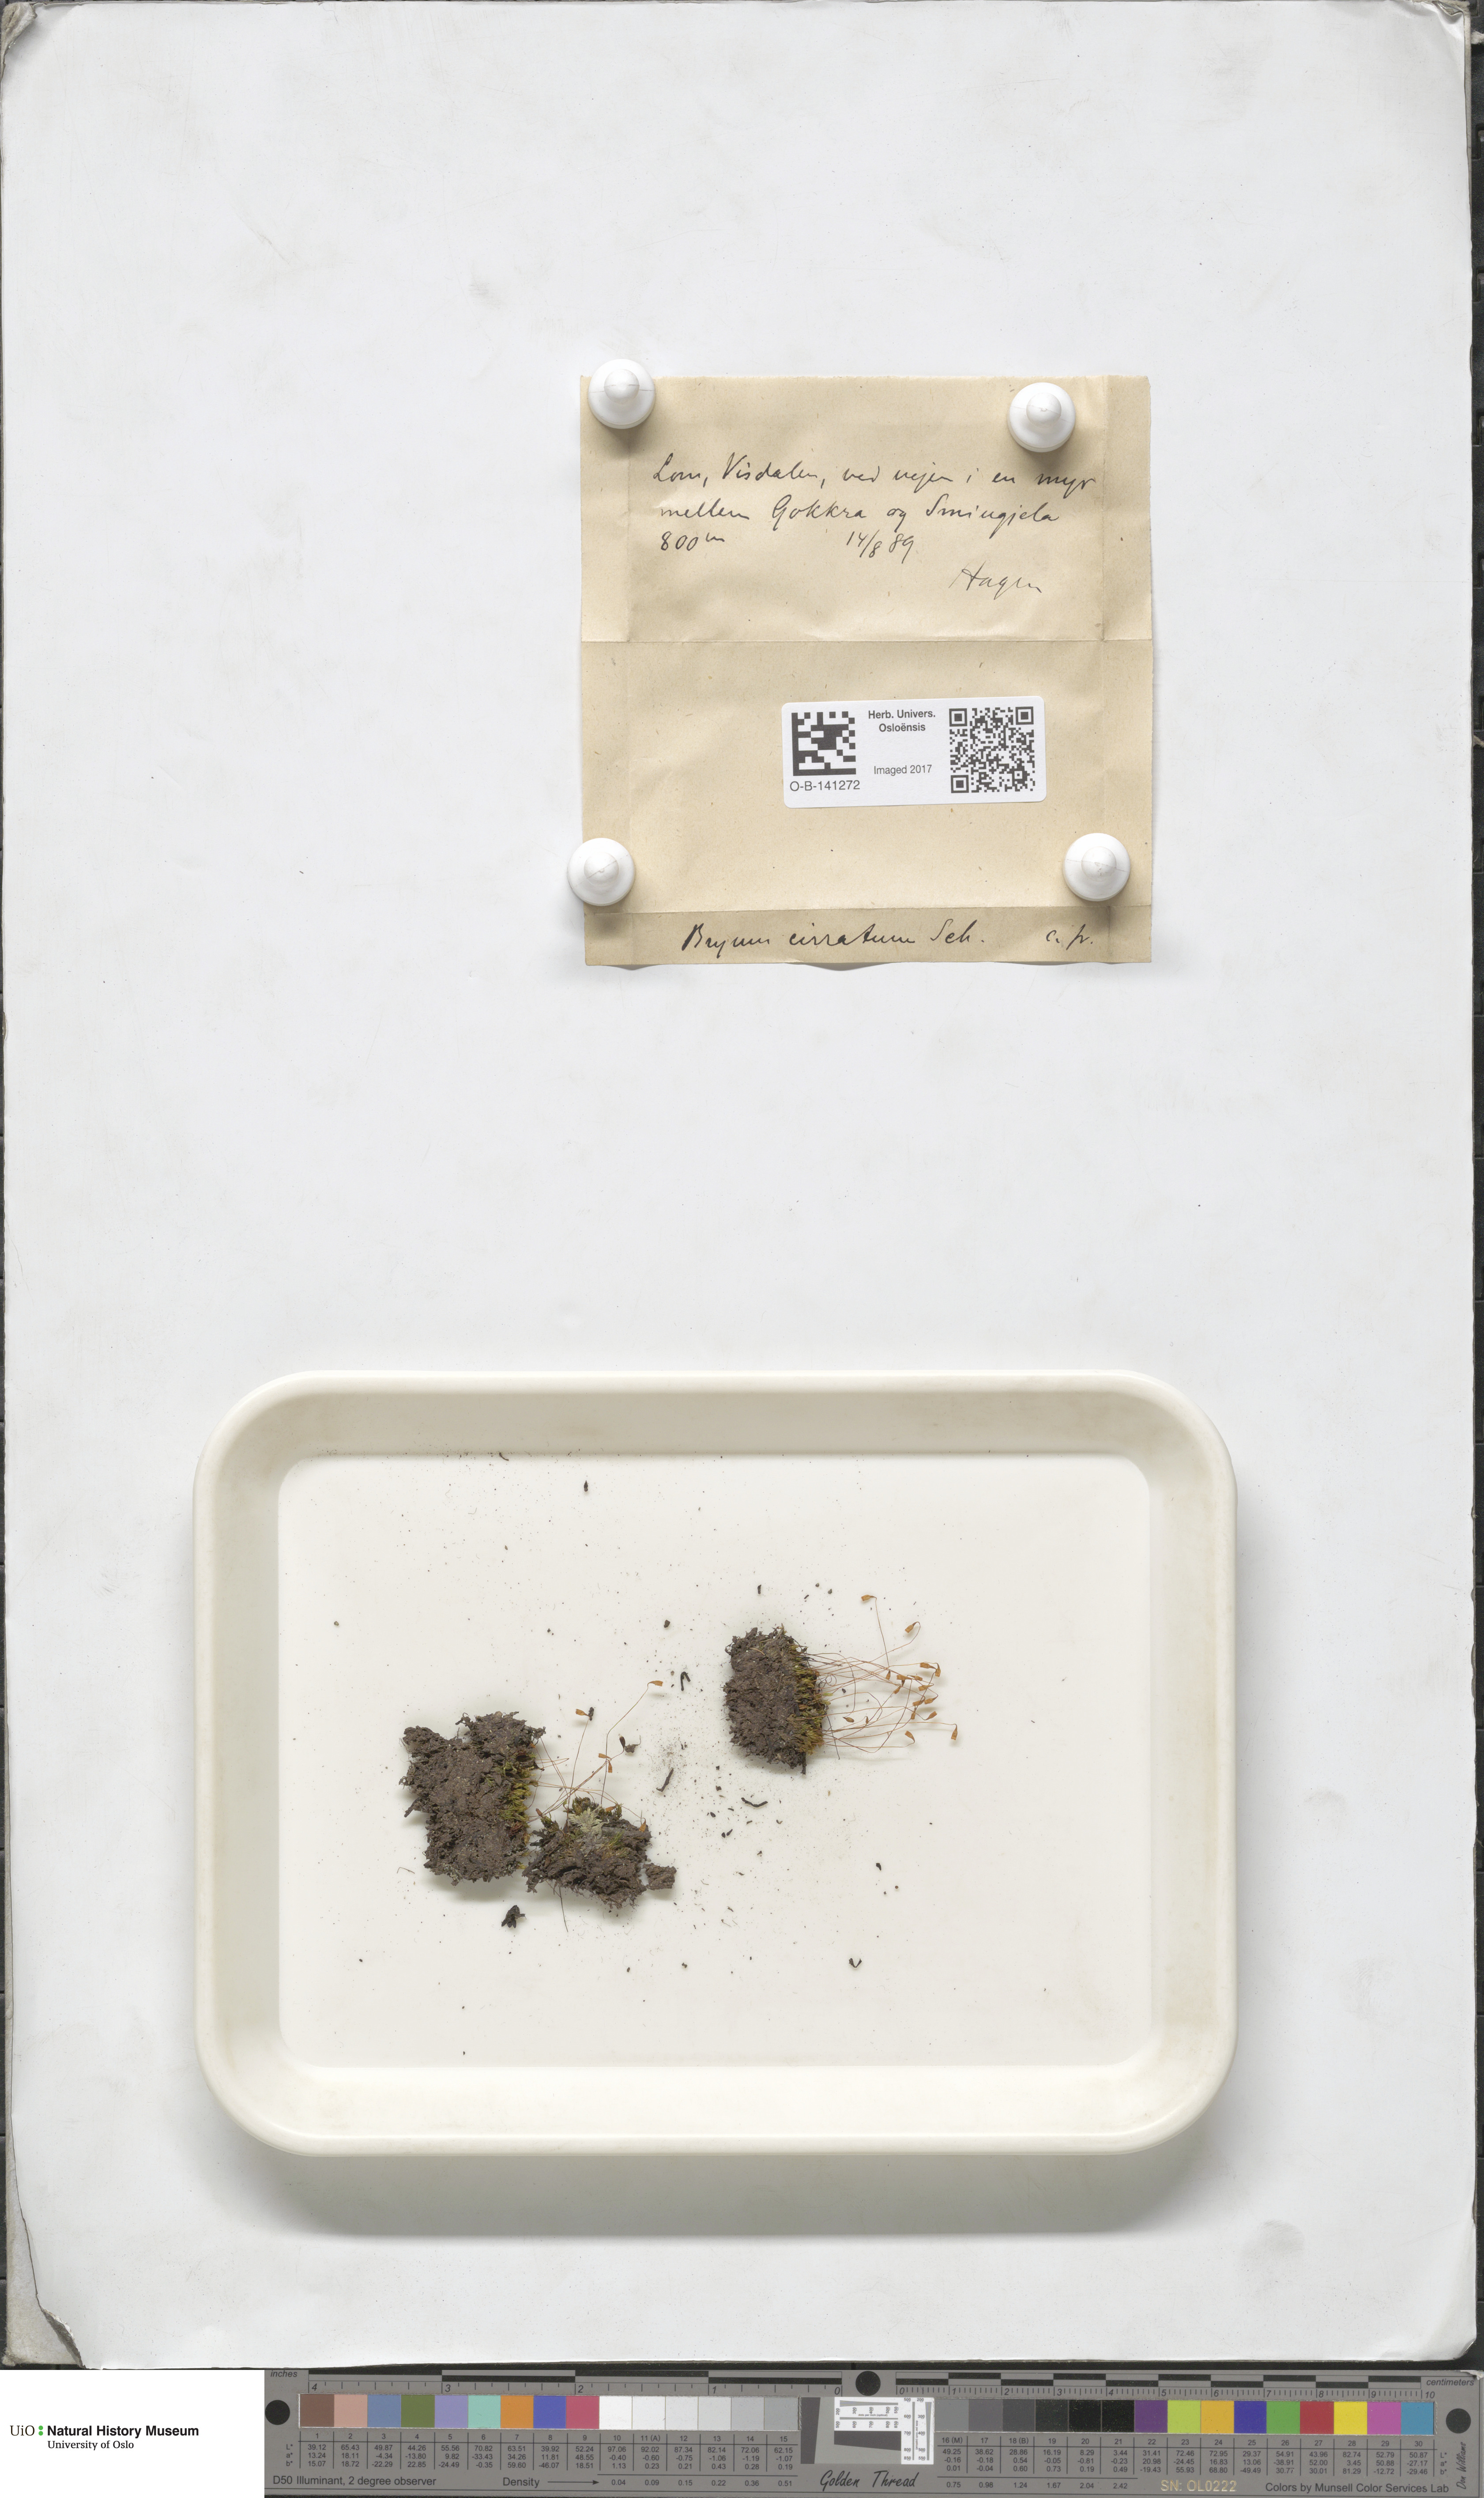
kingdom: Plantae
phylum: Bryophyta
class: Bryopsida
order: Bryales
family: Bryaceae
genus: Ptychostomum
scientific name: Ptychostomum pallescens
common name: Tall-clustered thread-moss
